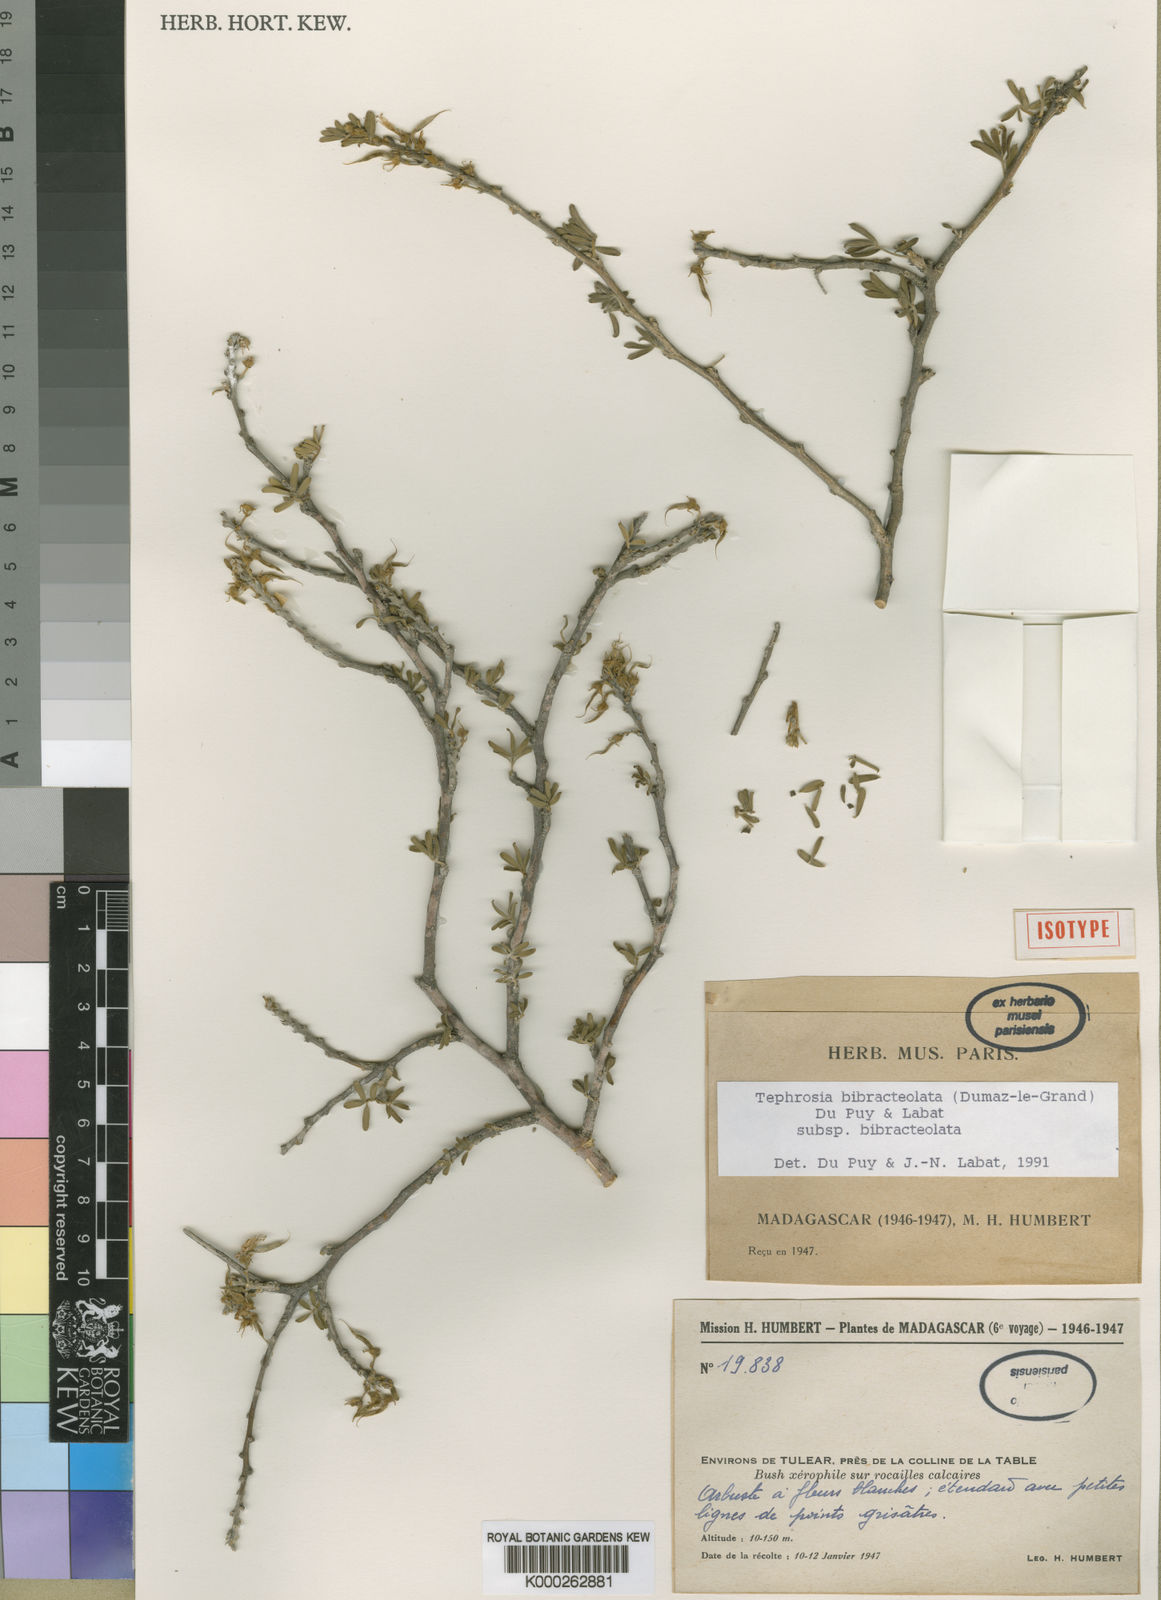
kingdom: Plantae
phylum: Tracheophyta
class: Magnoliopsida
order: Fabales
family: Fabaceae
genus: Tephrosia
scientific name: Tephrosia bibracteolata
